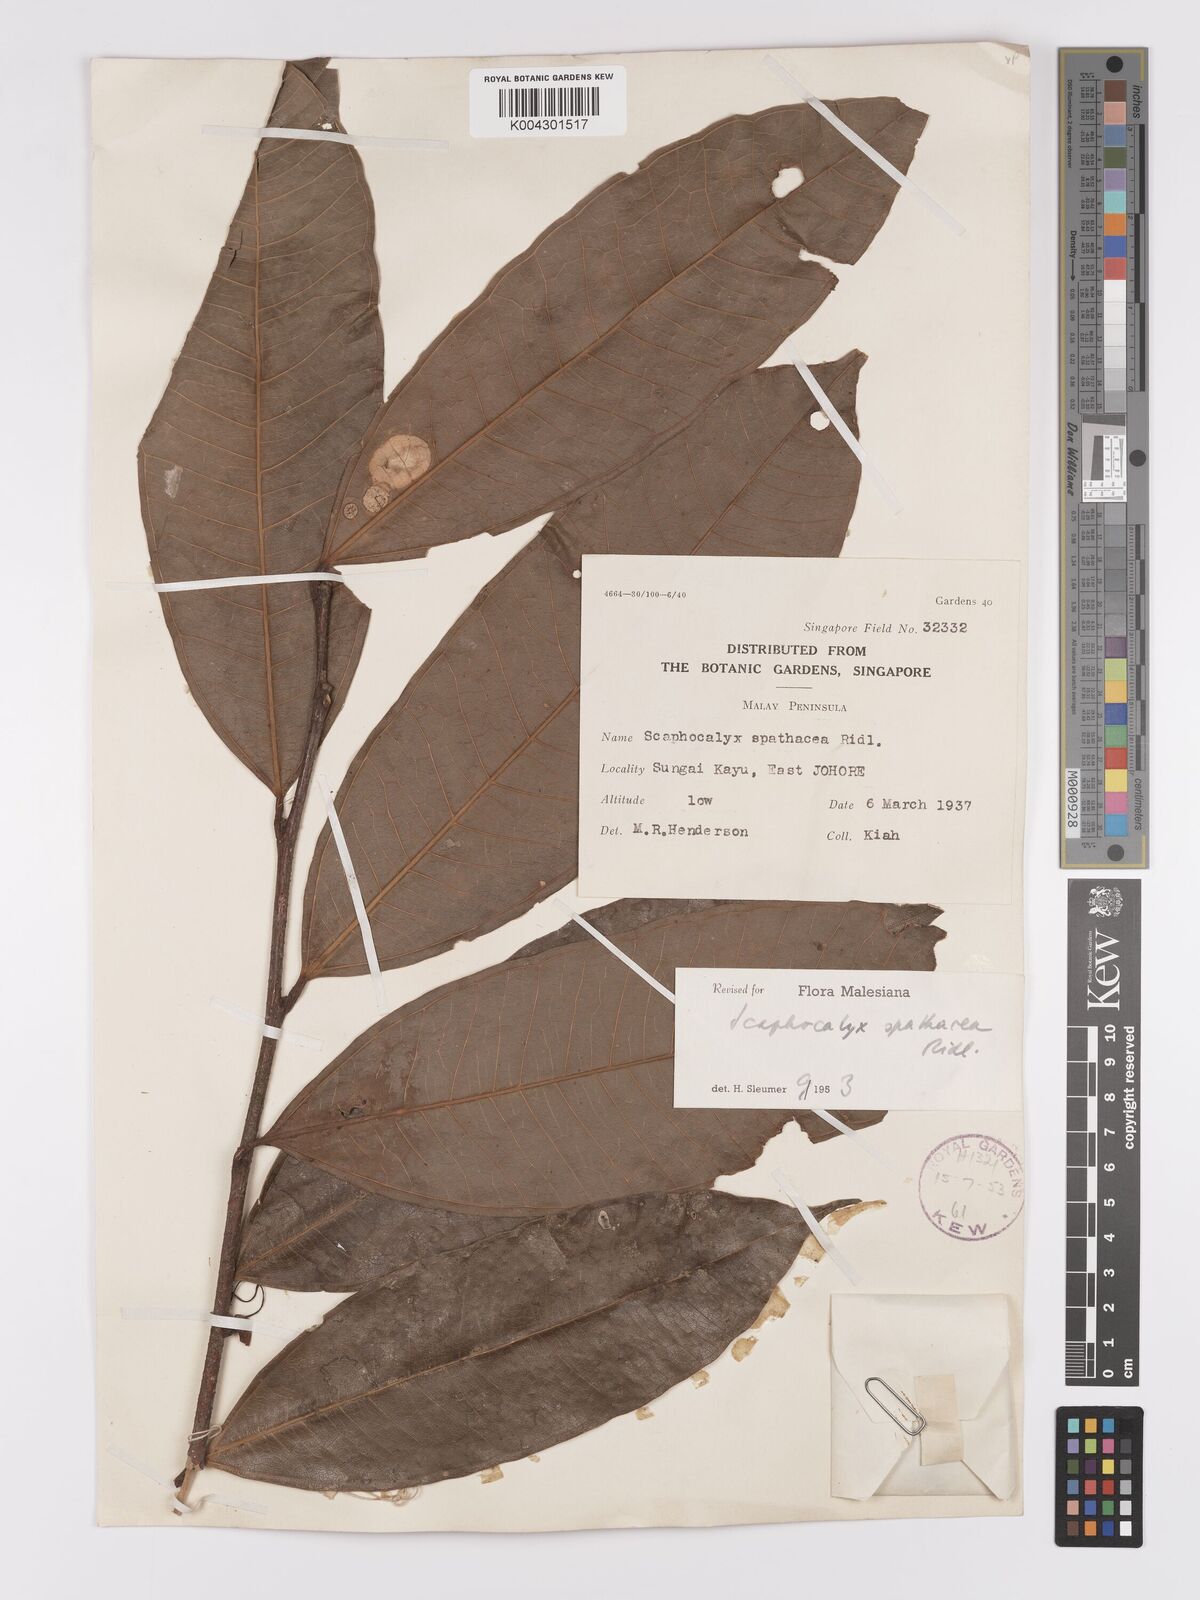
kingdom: Plantae
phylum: Tracheophyta
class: Magnoliopsida
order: Malpighiales
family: Achariaceae
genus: Scaphocalyx
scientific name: Scaphocalyx spathacea
